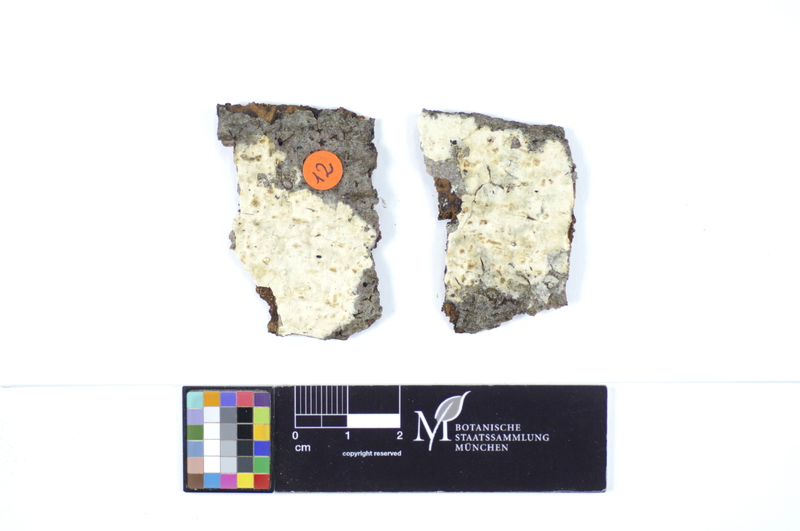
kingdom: Fungi
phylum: Basidiomycota
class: Agaricomycetes
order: Polyporales
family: Hyphodermataceae
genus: Mutatoderma
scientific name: Mutatoderma mutatum
